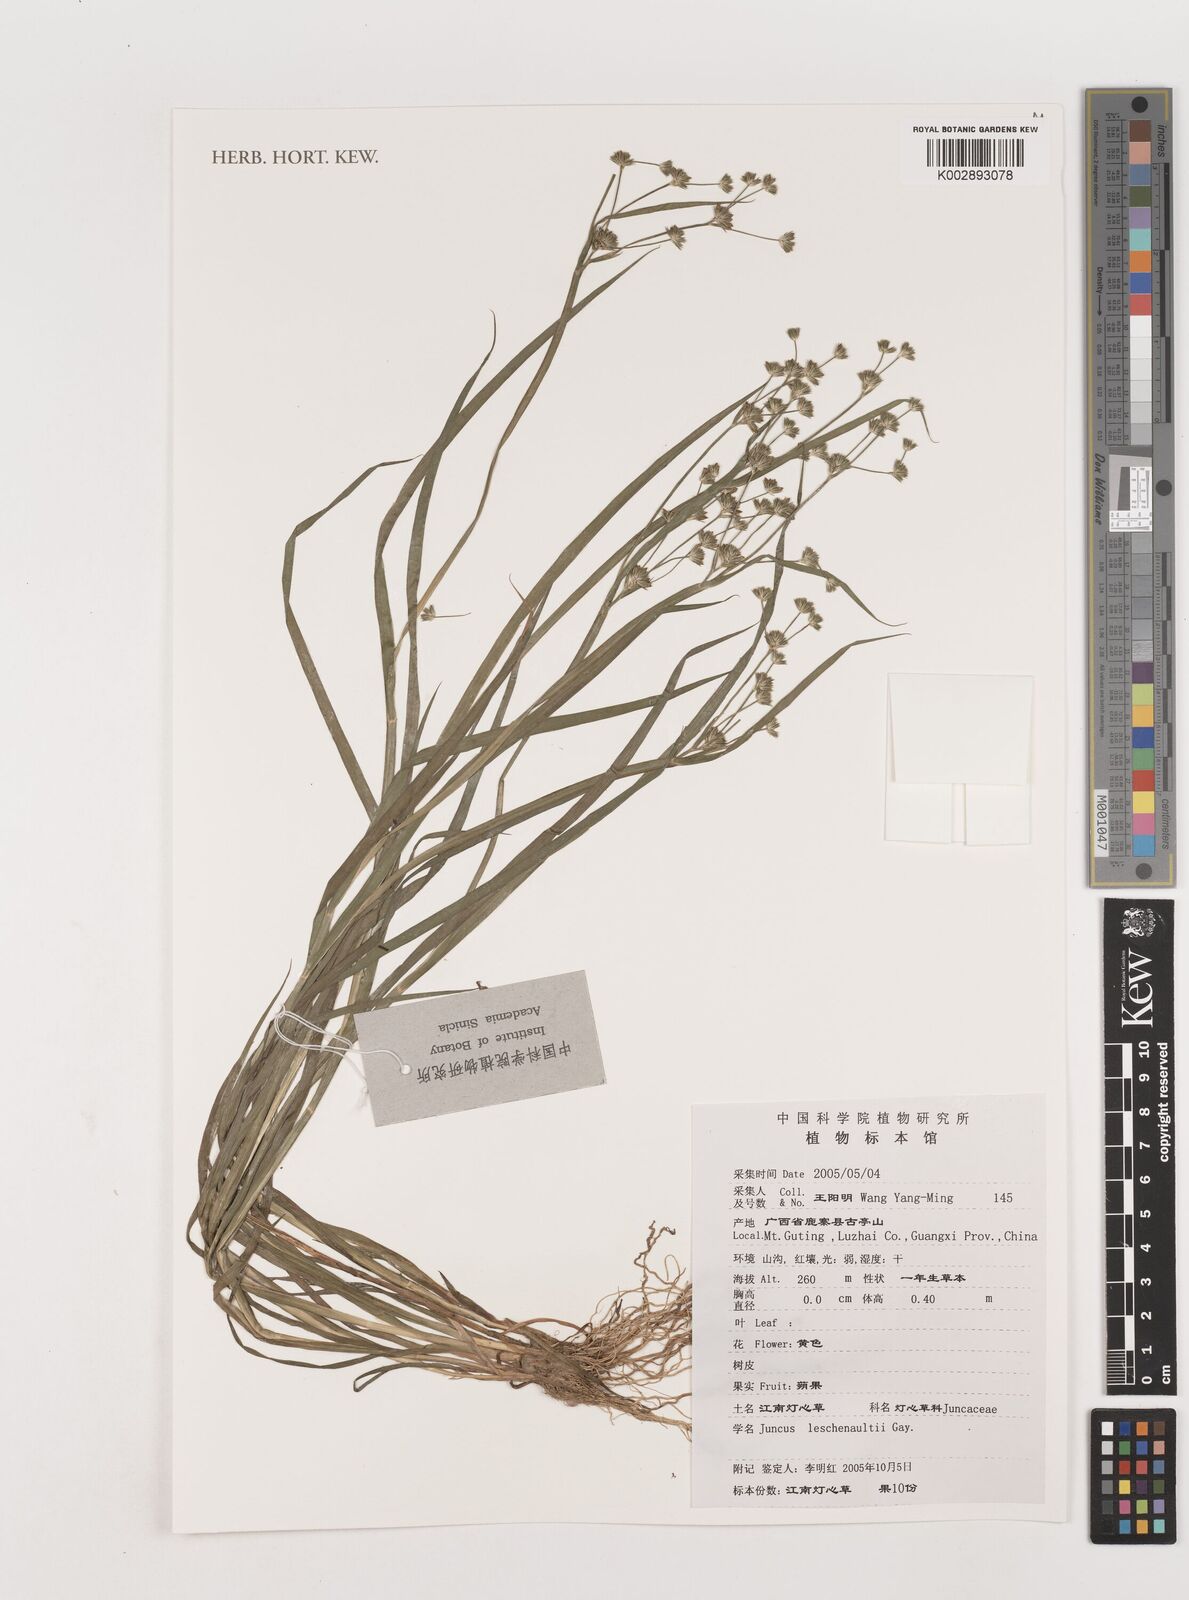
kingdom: Plantae
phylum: Tracheophyta
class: Liliopsida
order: Poales
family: Juncaceae
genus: Juncus
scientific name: Juncus prismatocarpus
